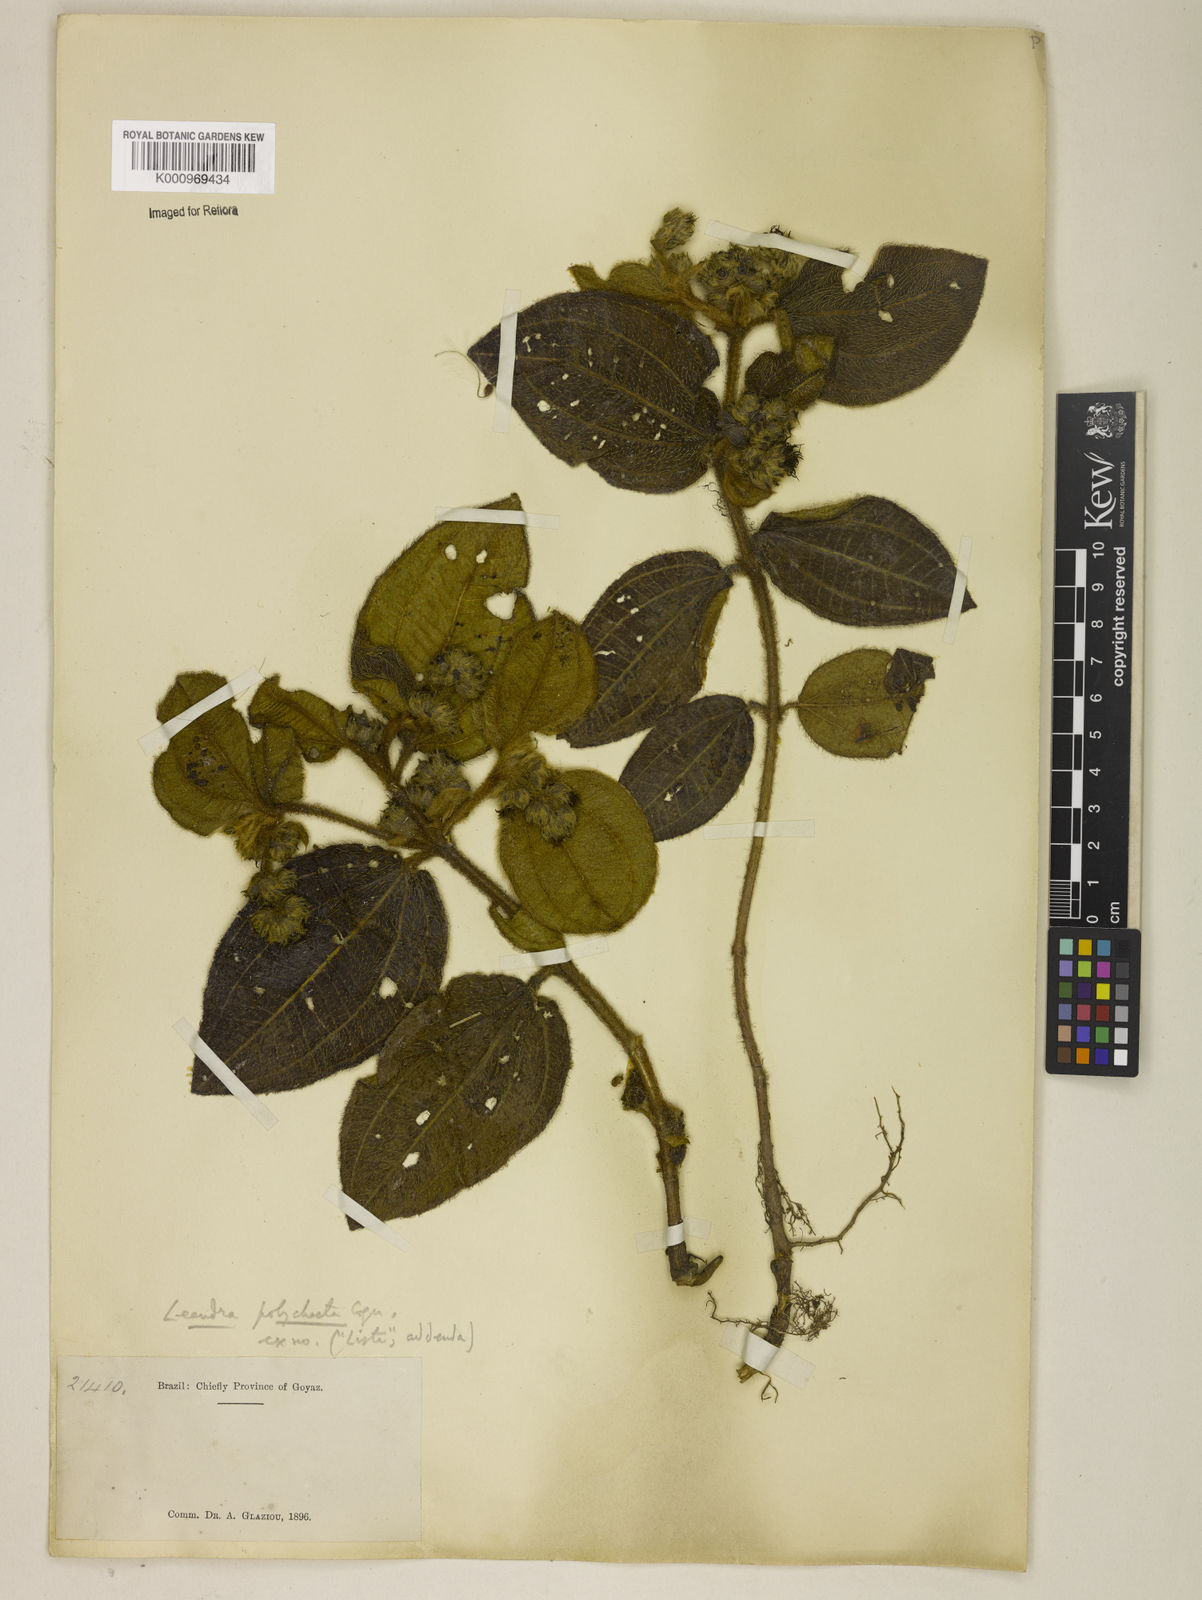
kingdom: Plantae
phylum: Tracheophyta
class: Magnoliopsida
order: Myrtales
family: Melastomataceae
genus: Miconia
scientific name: Miconia leapolychaeta
